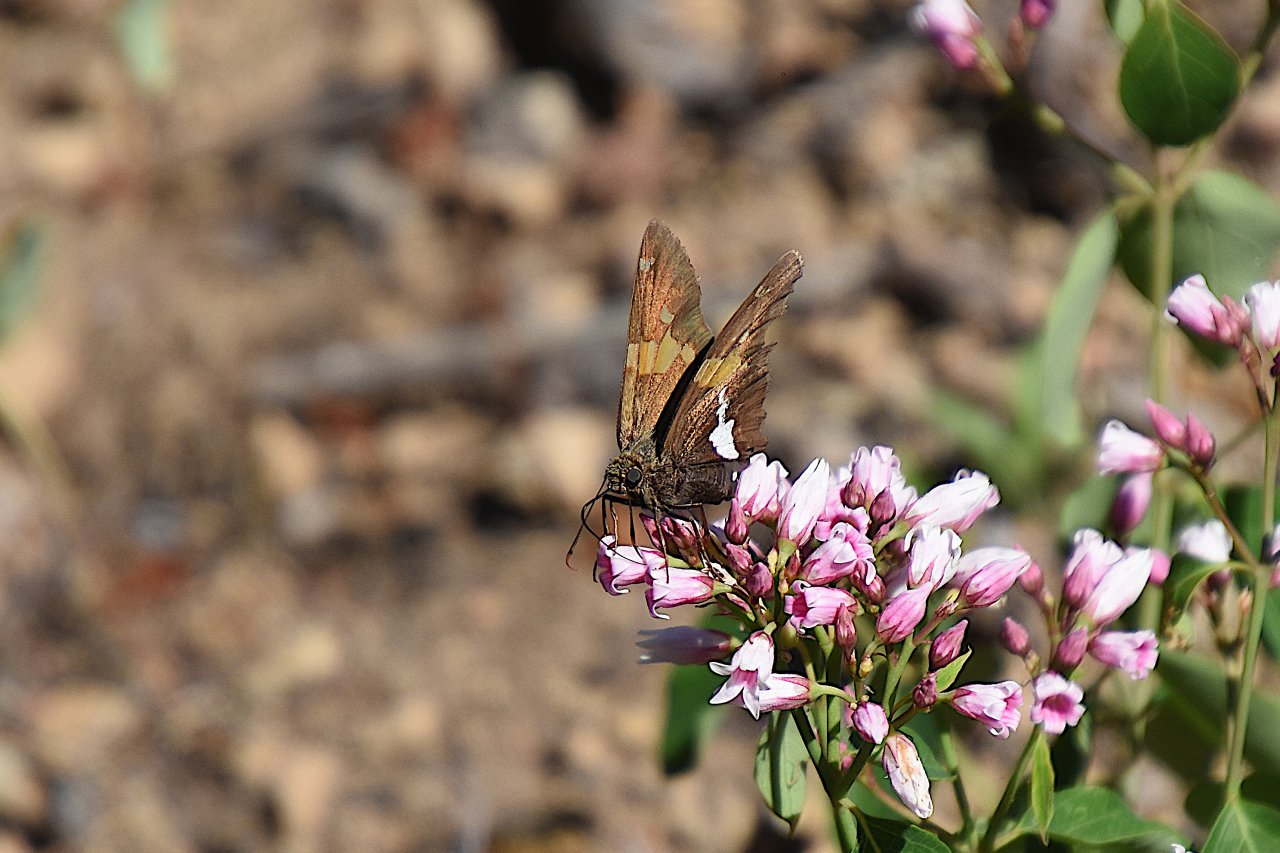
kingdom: Animalia
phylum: Arthropoda
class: Insecta
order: Lepidoptera
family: Hesperiidae
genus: Epargyreus
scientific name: Epargyreus clarus
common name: Silver-spotted Skipper
